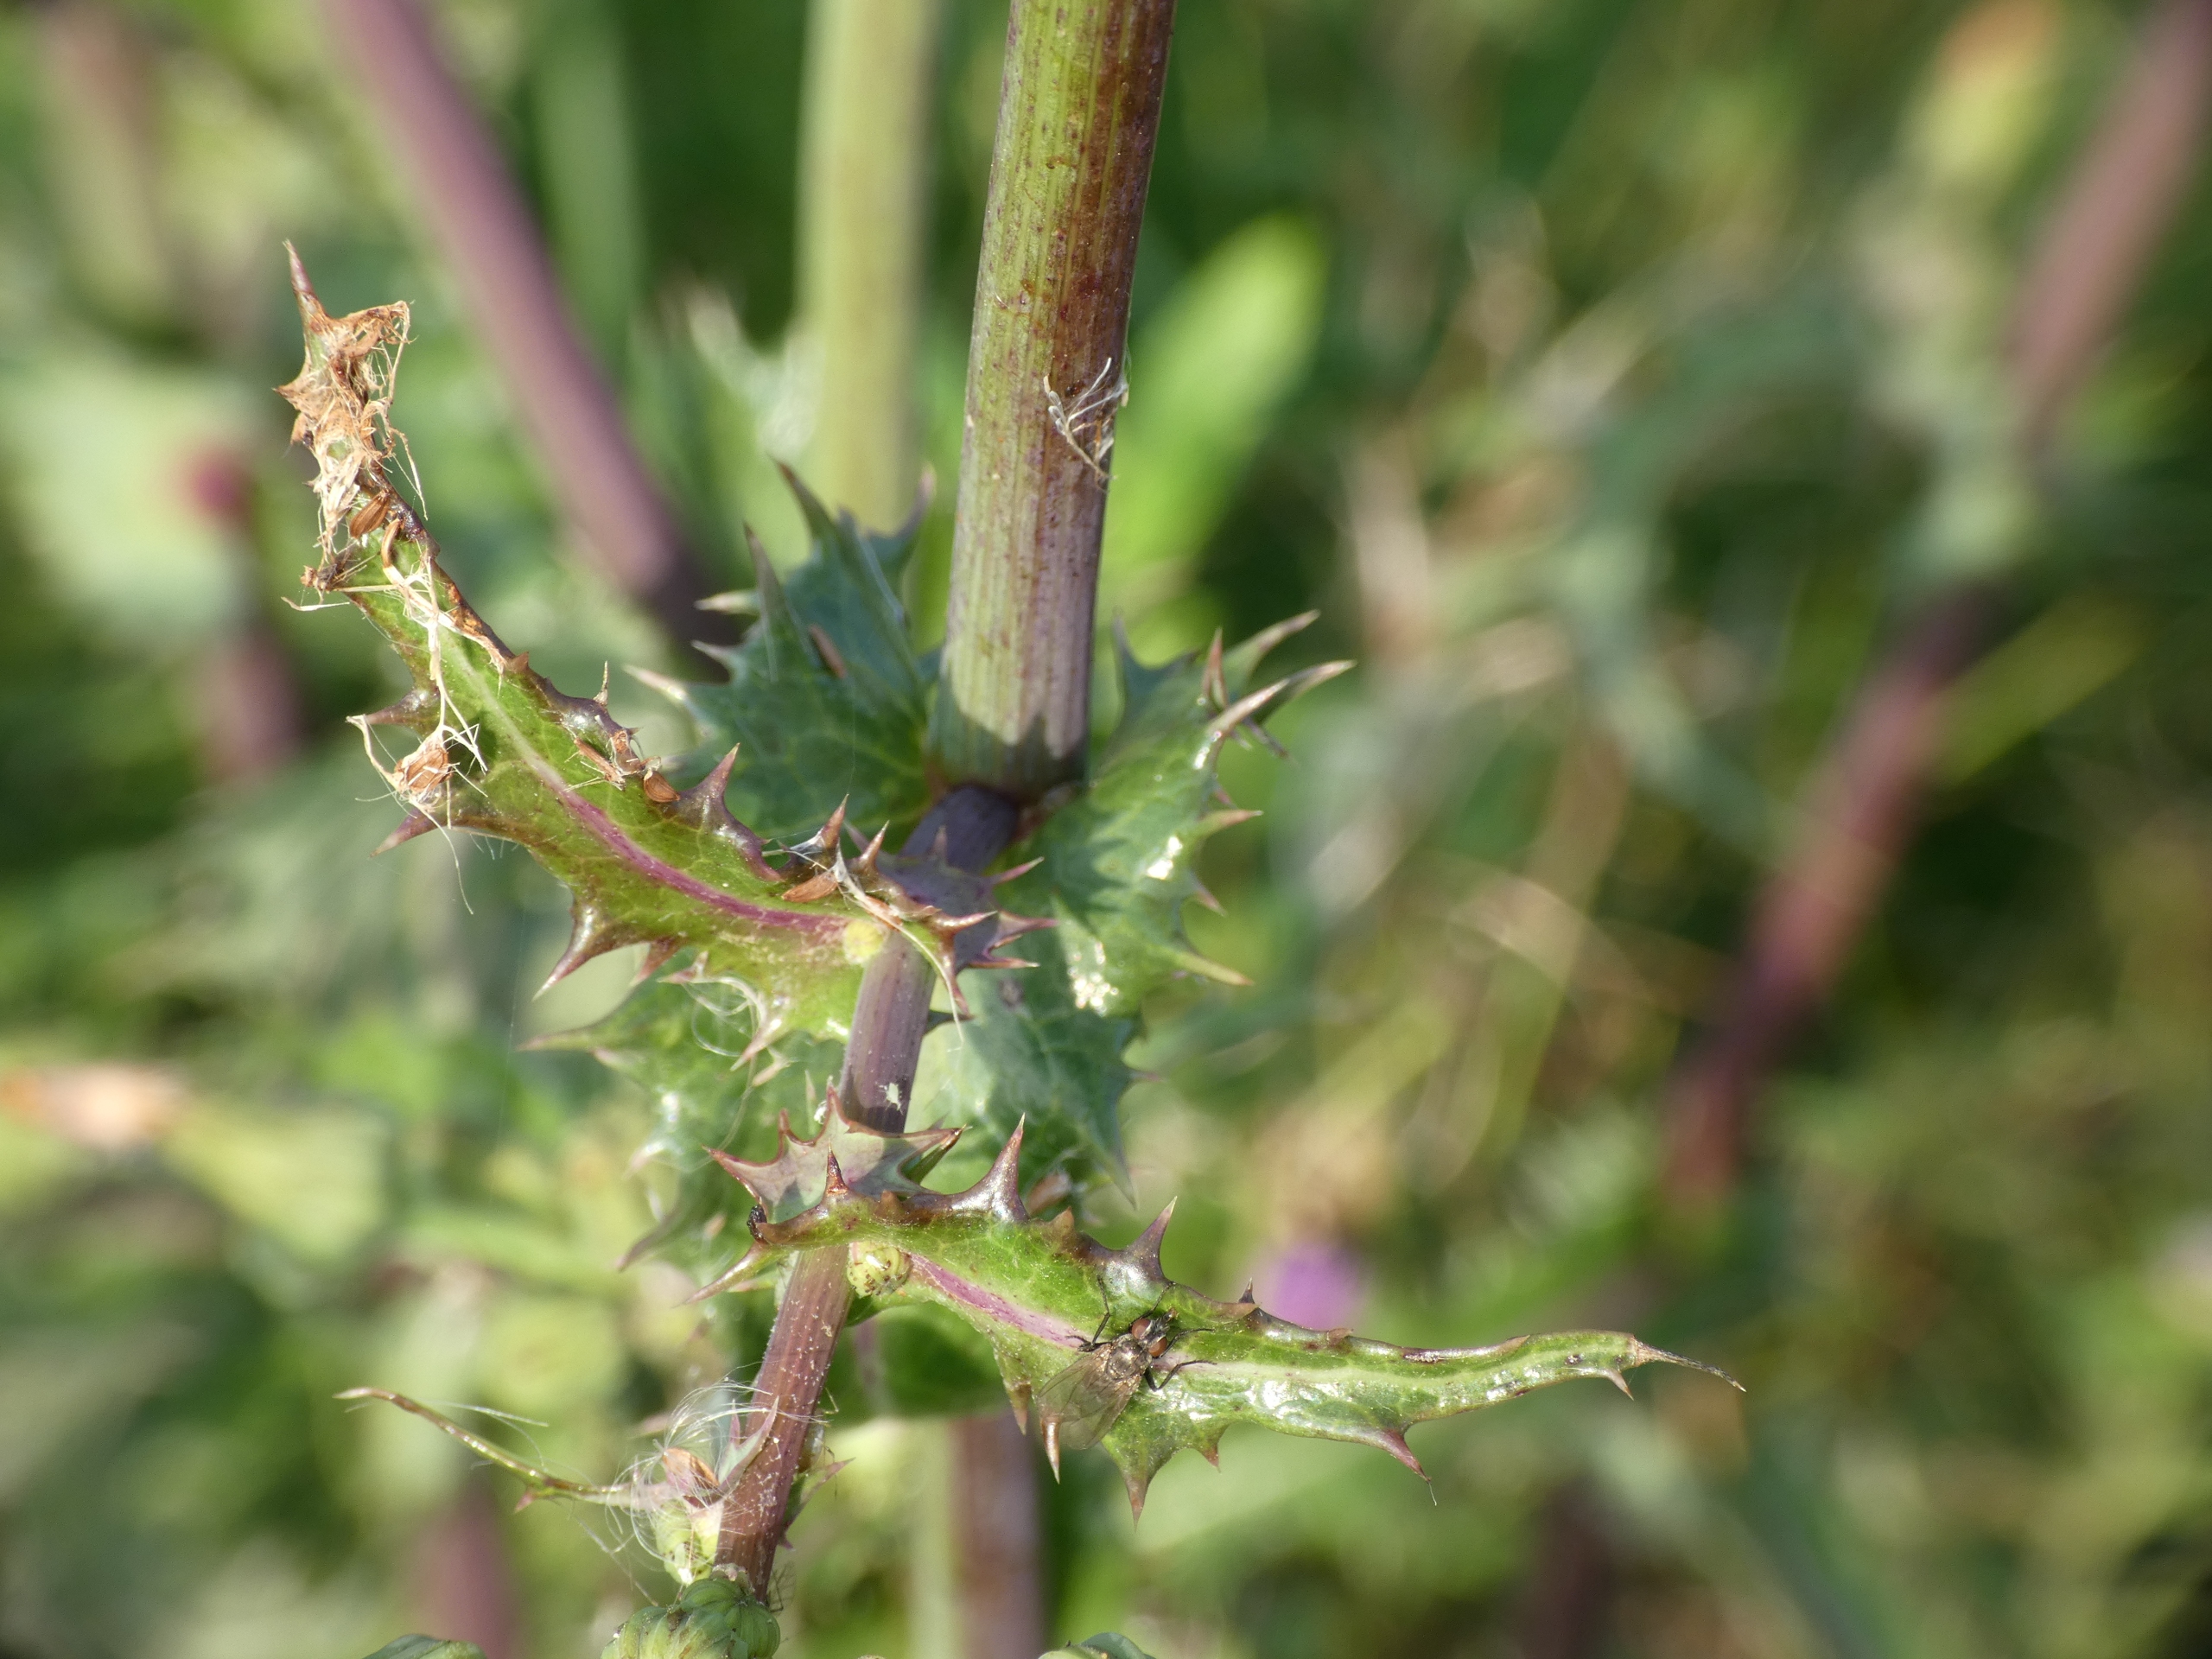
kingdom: Plantae
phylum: Tracheophyta
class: Magnoliopsida
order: Asterales
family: Asteraceae
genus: Sonchus
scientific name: Sonchus asper
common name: Ru svinemælk
